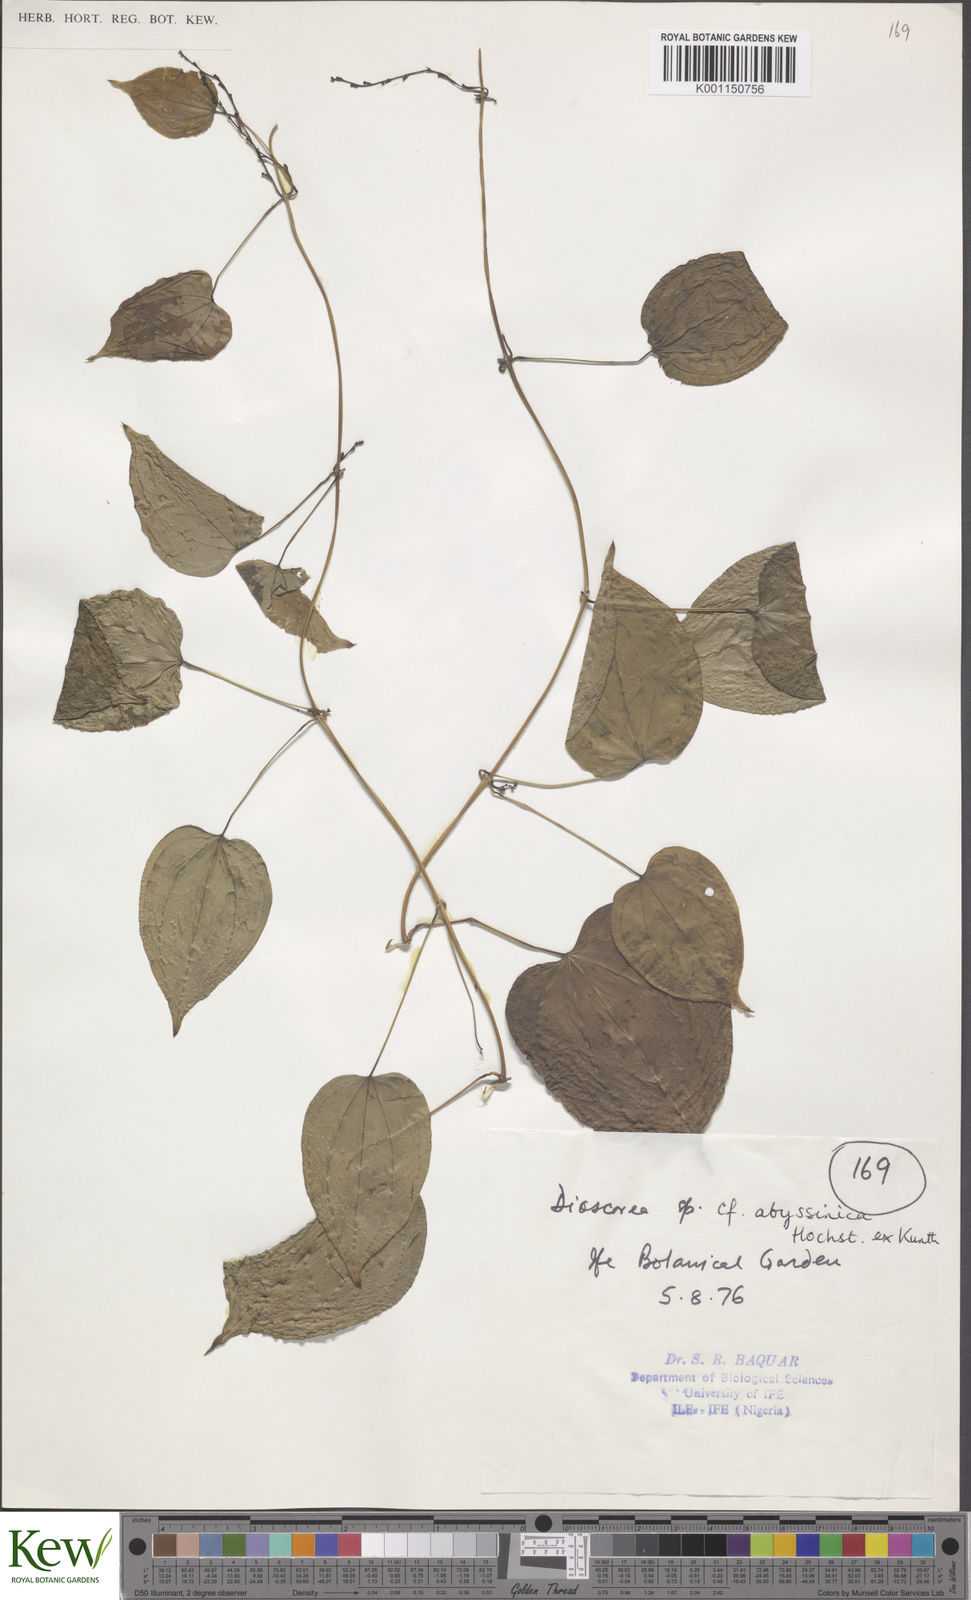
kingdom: Plantae
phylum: Tracheophyta
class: Liliopsida
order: Dioscoreales
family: Dioscoreaceae
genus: Dioscorea
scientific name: Dioscorea abyssinica
